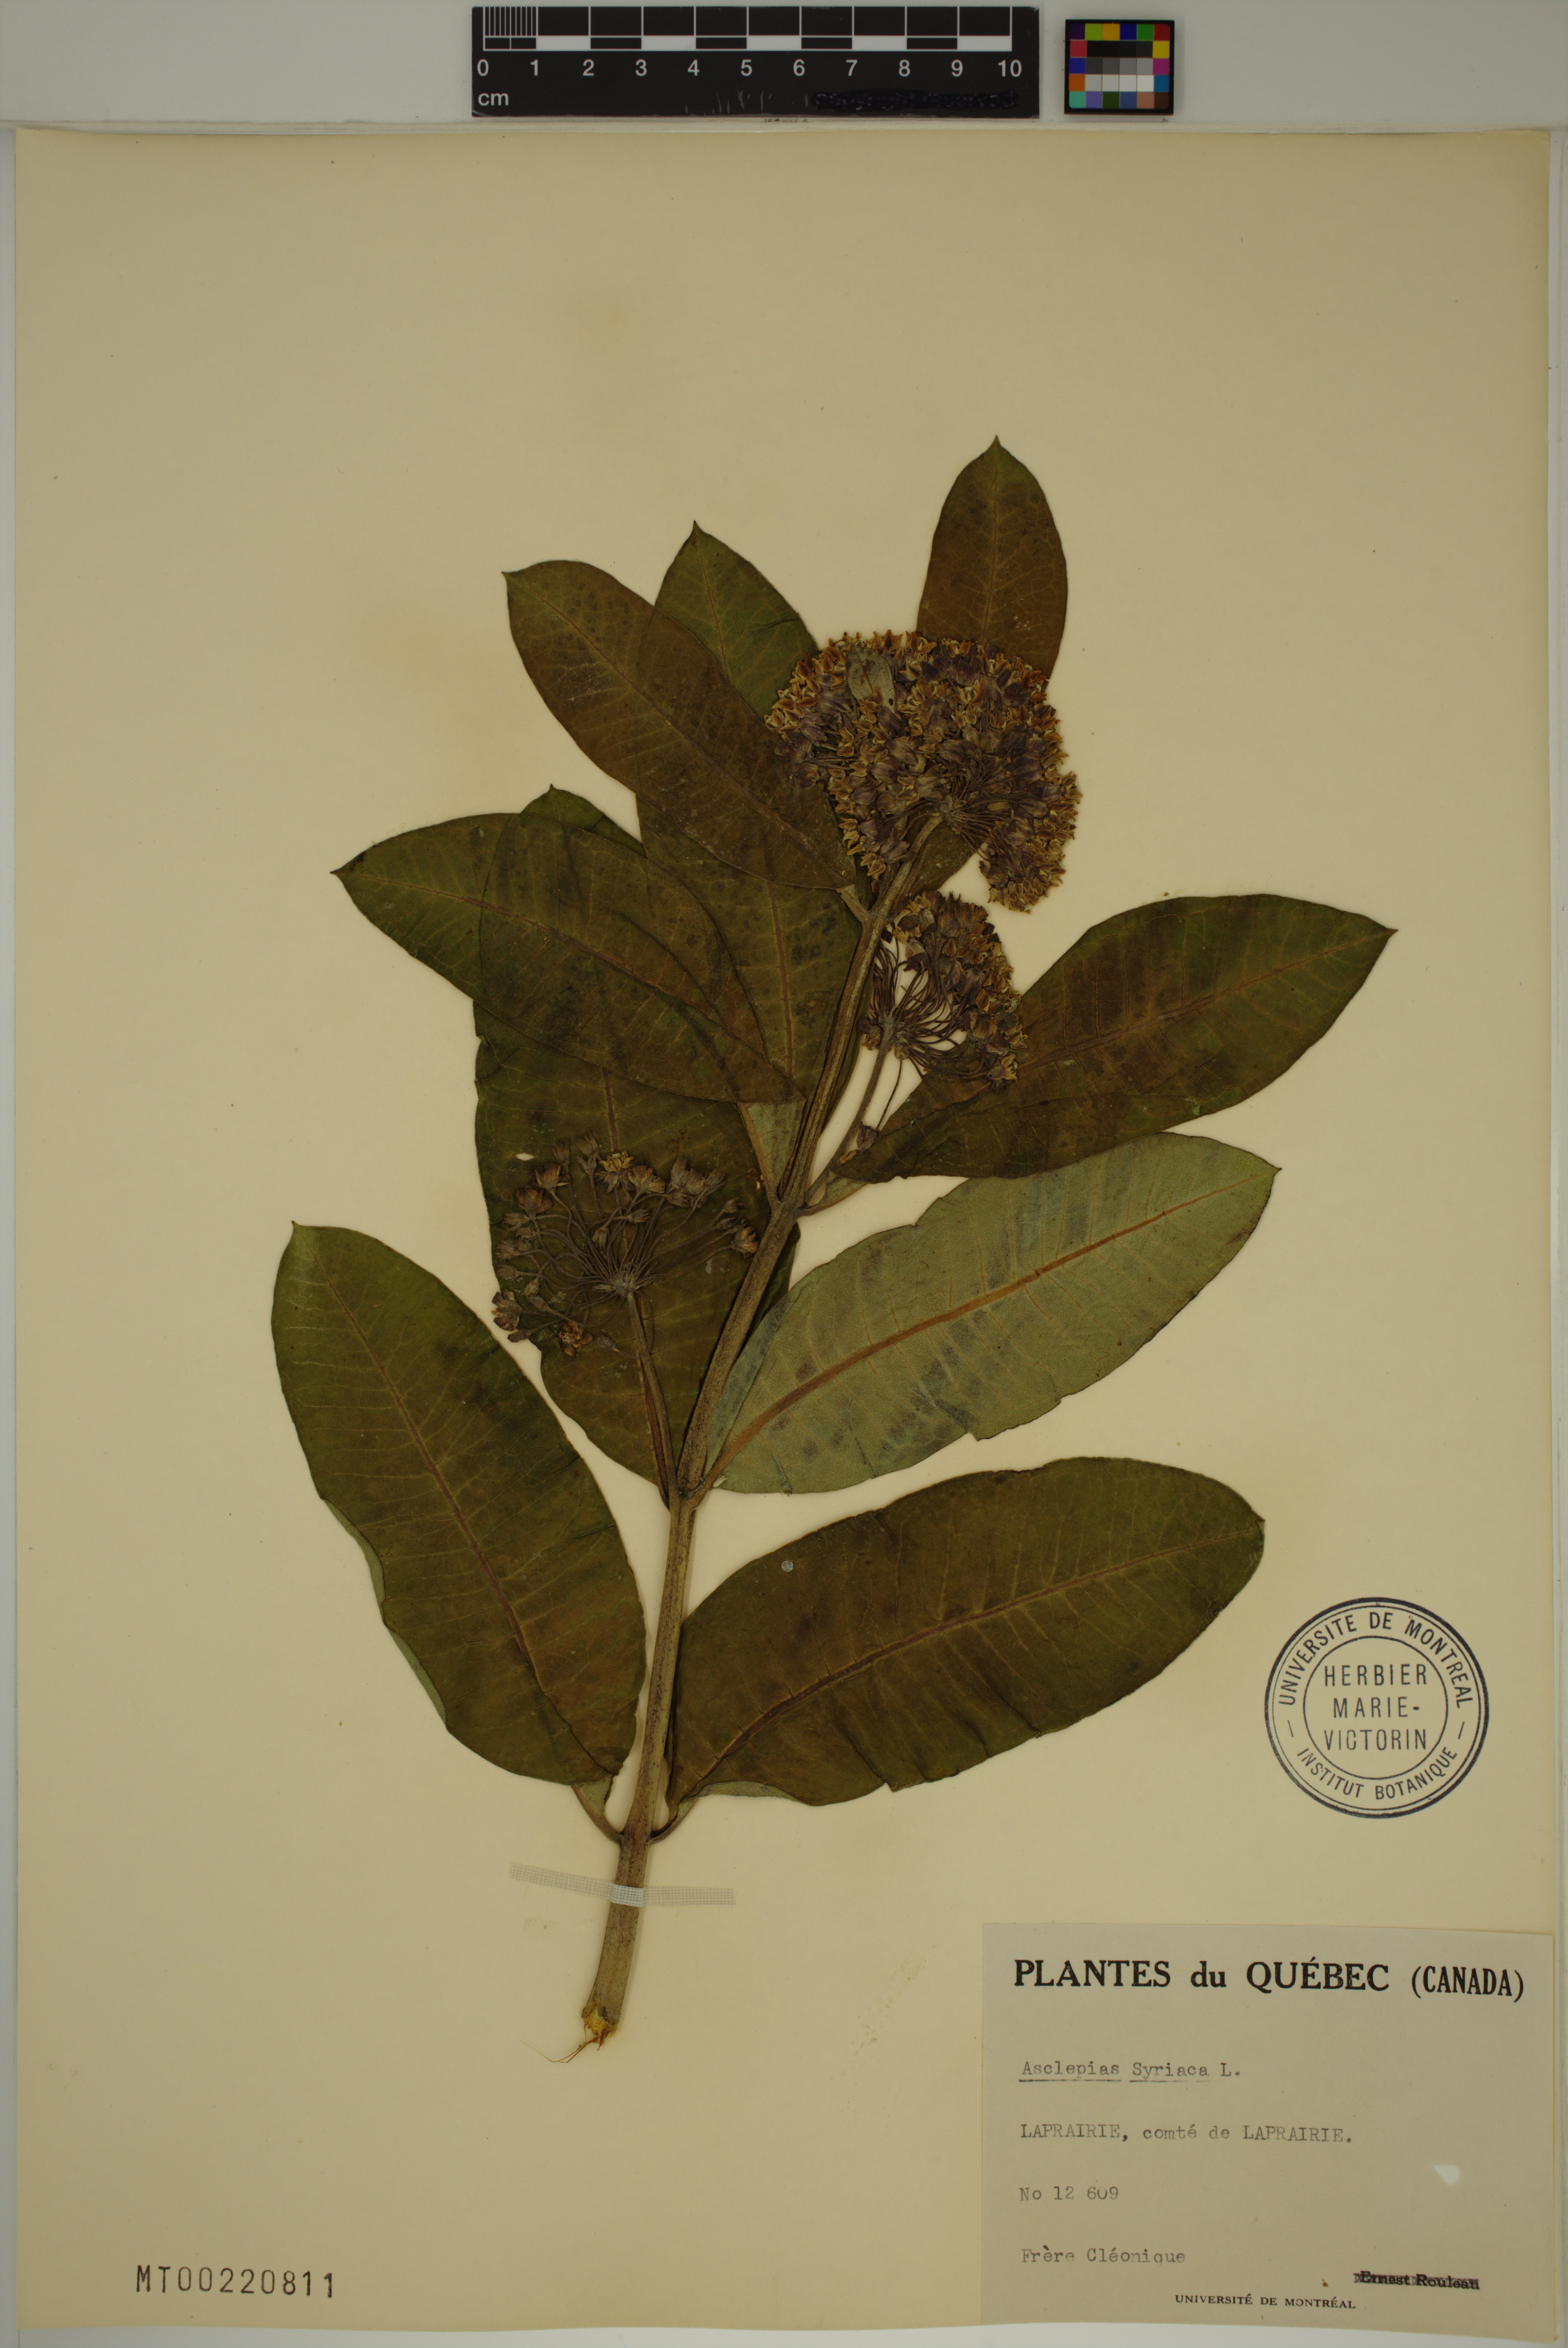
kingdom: Plantae
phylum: Tracheophyta
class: Magnoliopsida
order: Gentianales
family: Apocynaceae
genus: Asclepias
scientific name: Asclepias syriaca
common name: Common milkweed
